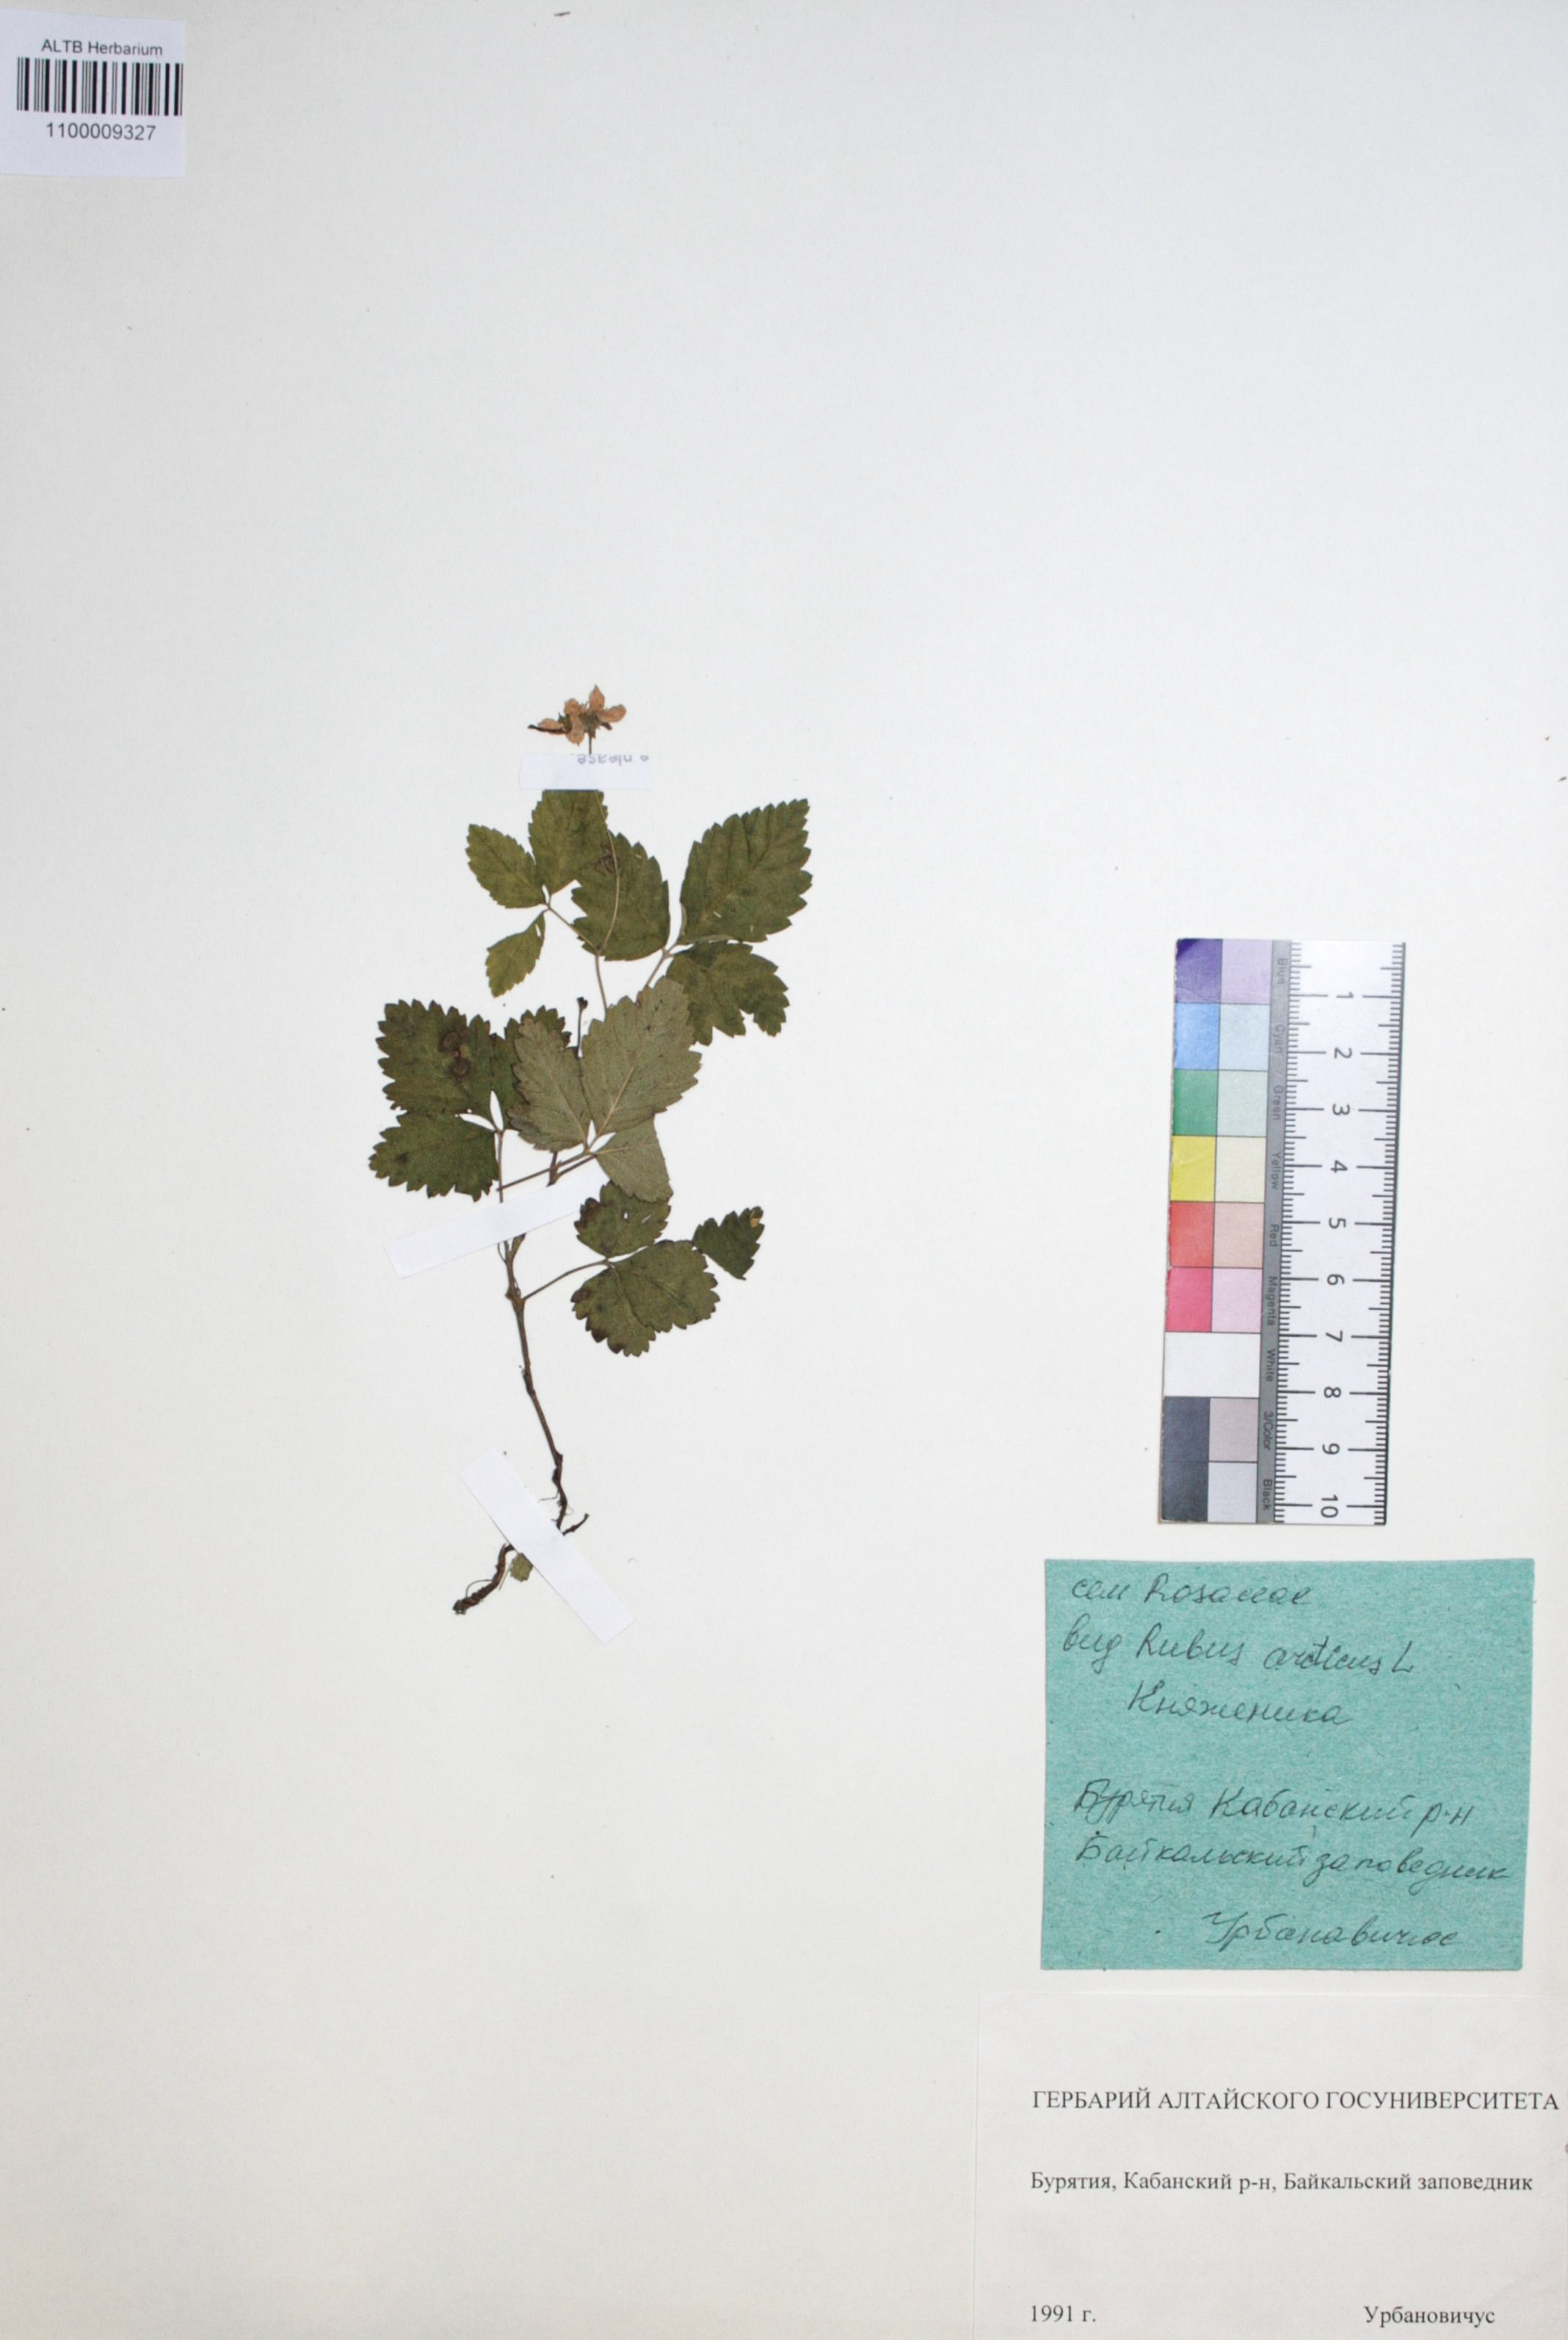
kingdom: Plantae
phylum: Tracheophyta
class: Magnoliopsida
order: Rosales
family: Rosaceae
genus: Rubus
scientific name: Rubus arcticus
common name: Arctic bramble
